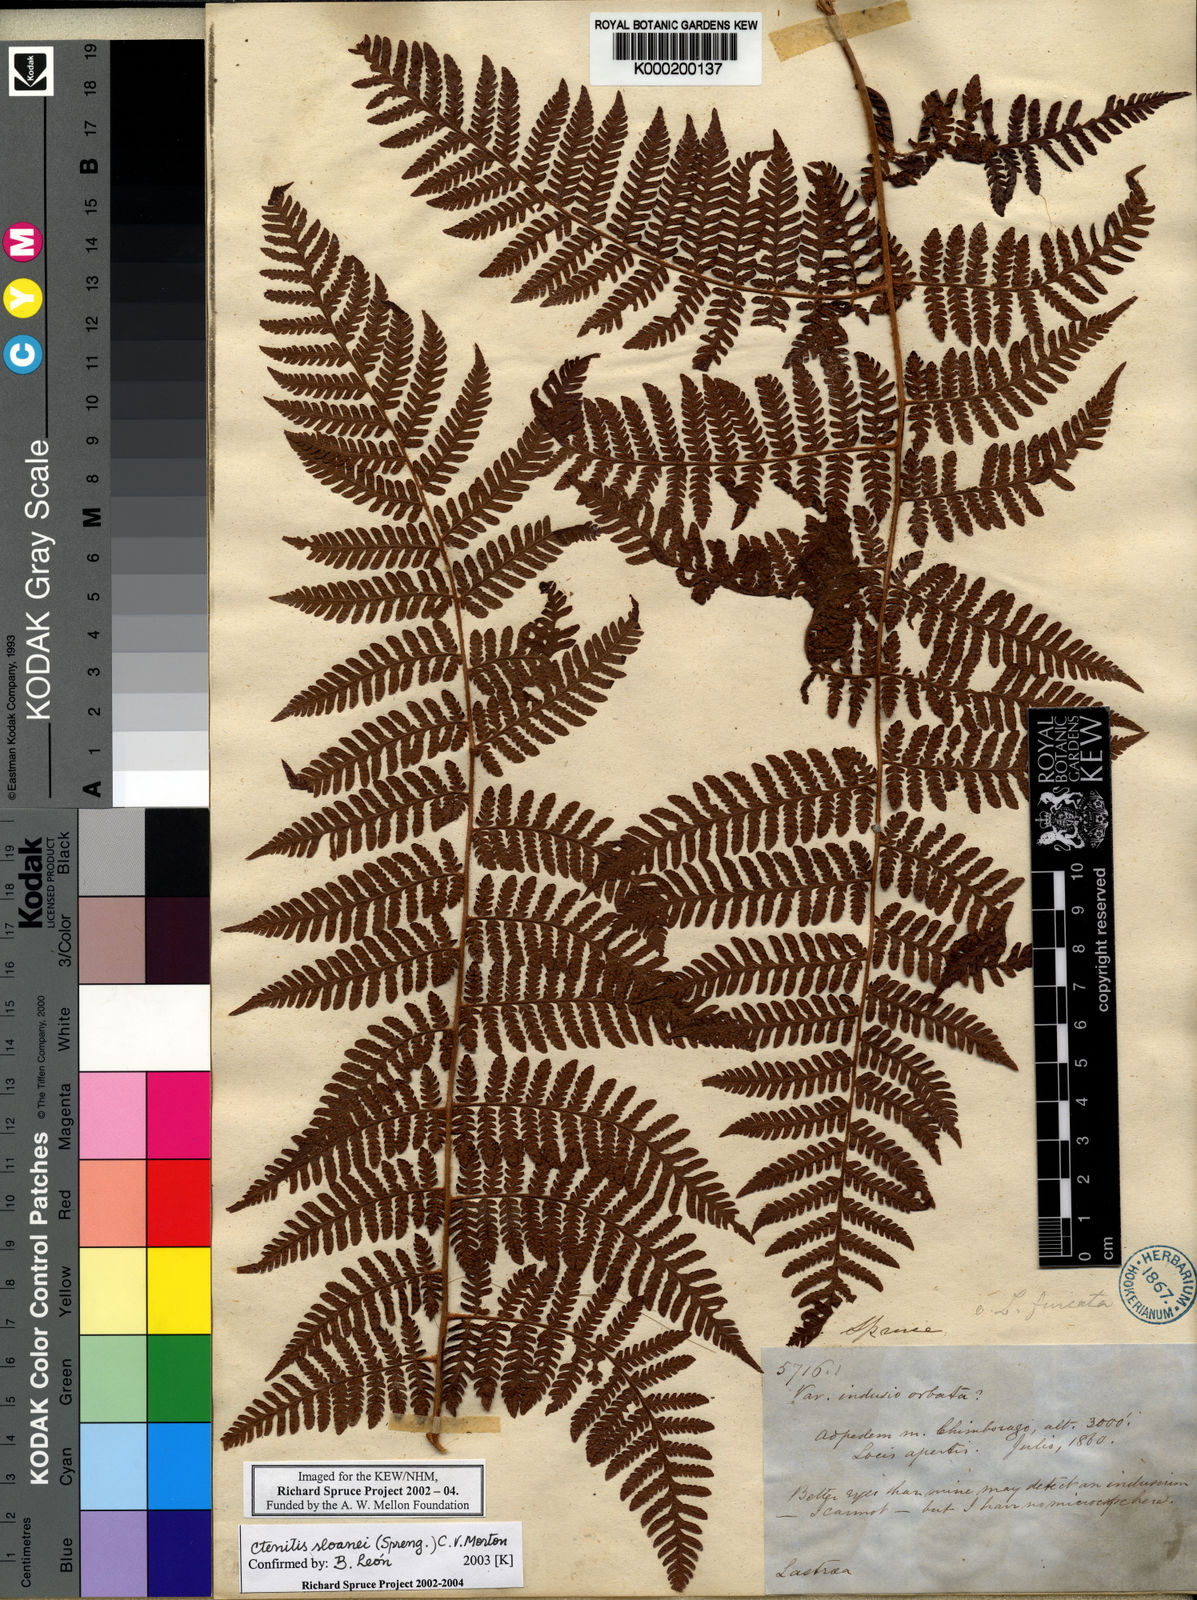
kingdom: Plantae
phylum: Tracheophyta
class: Polypodiopsida
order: Polypodiales
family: Dryopteridaceae
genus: Ctenitis
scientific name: Ctenitis sloanei
